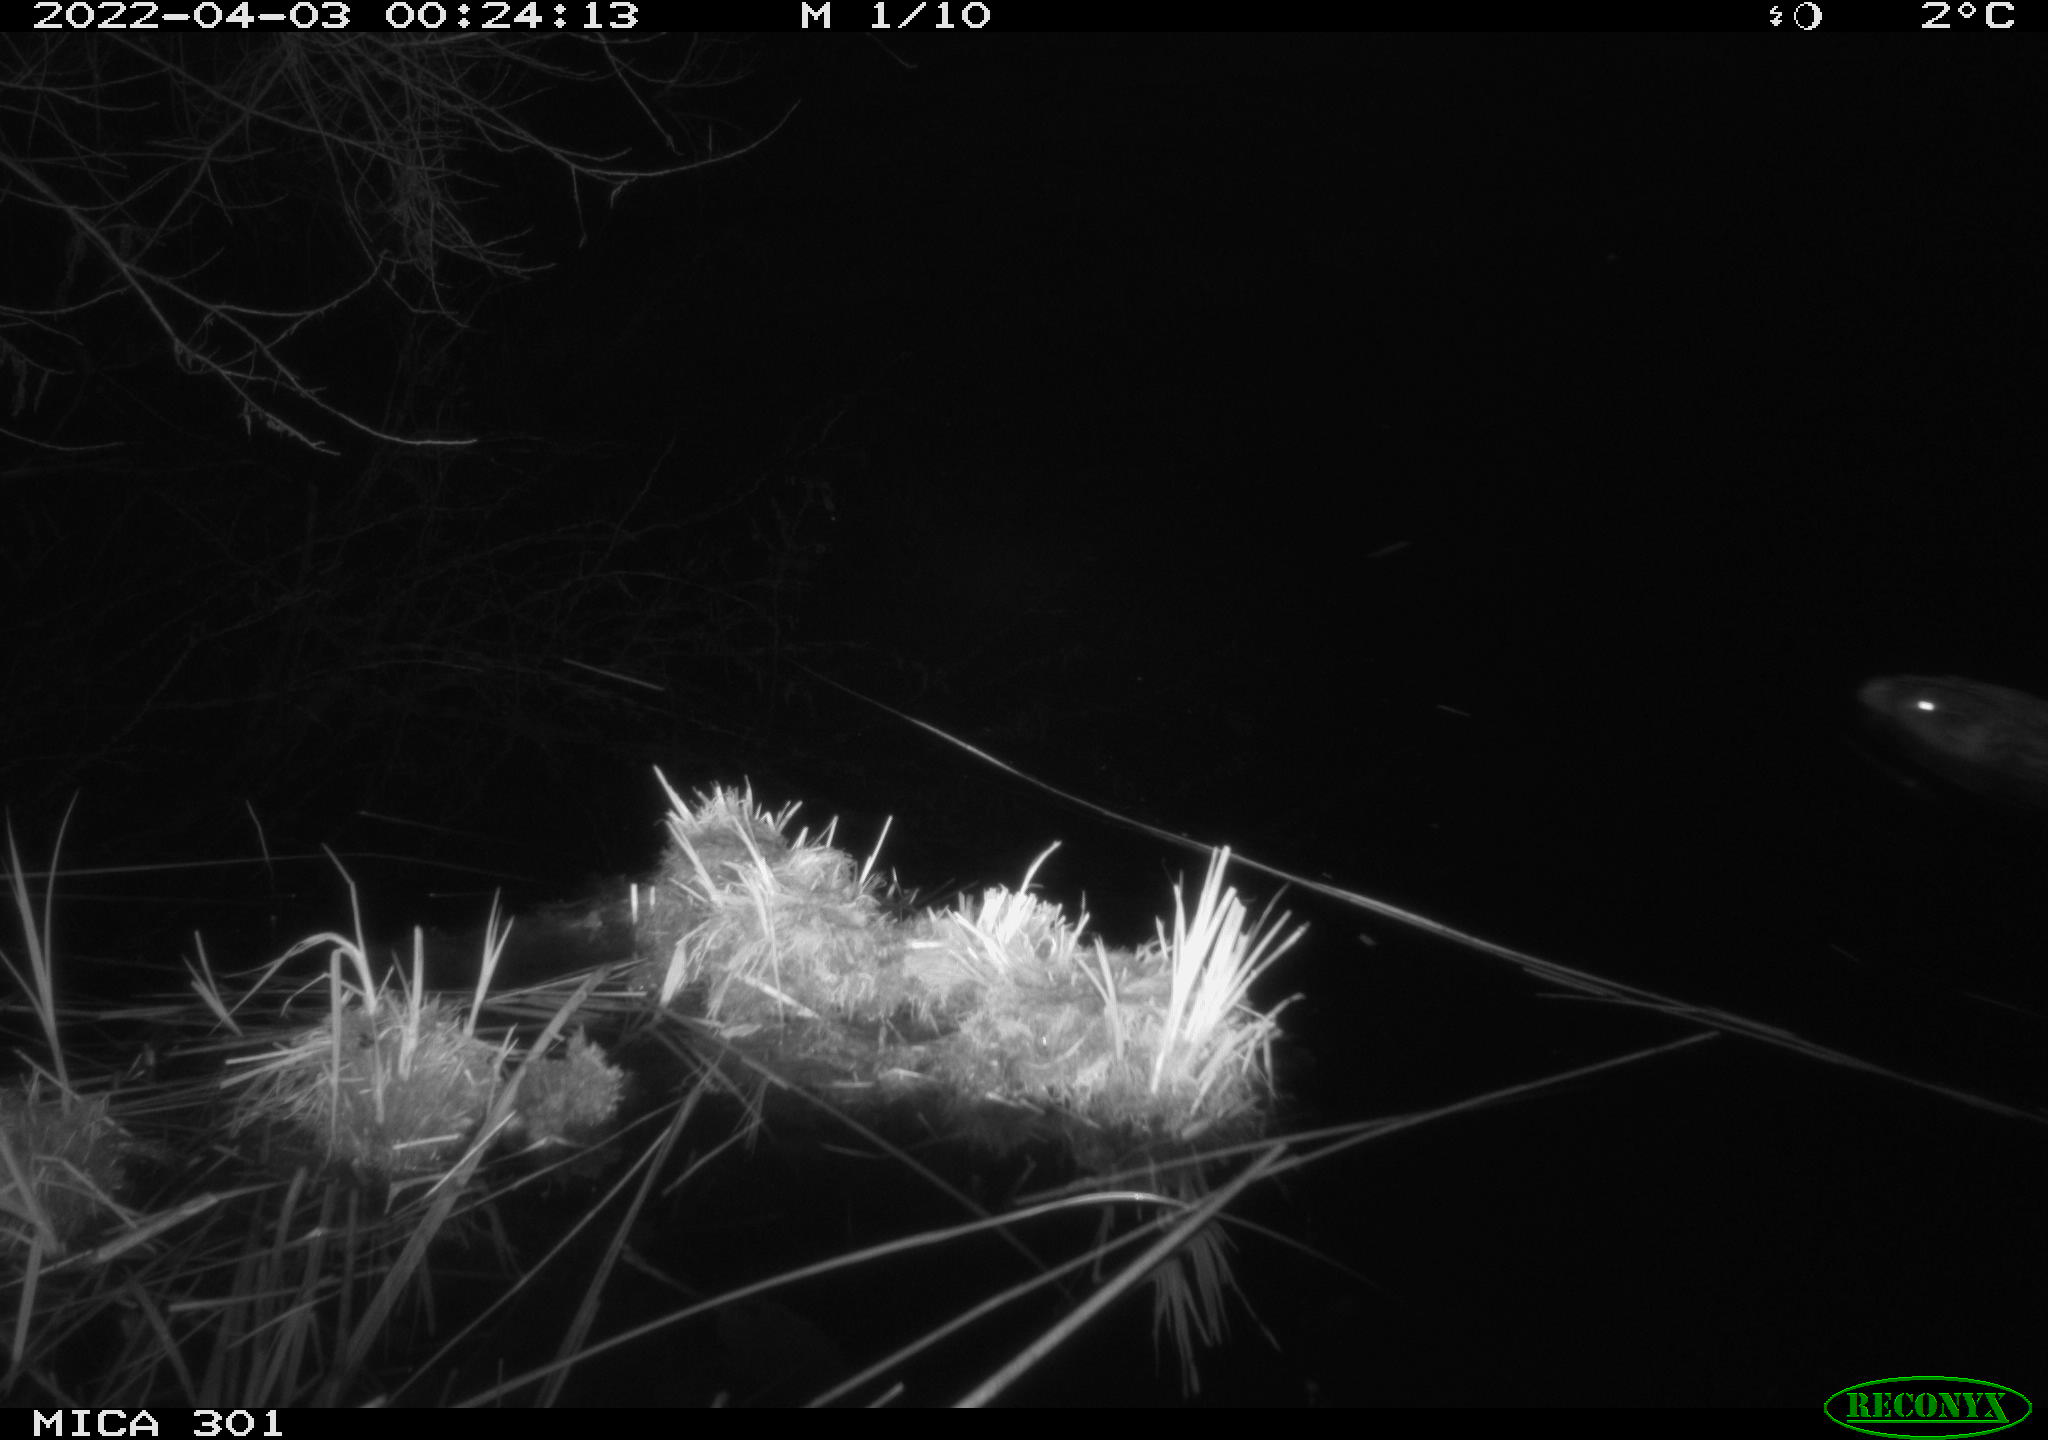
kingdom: Animalia
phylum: Chordata
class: Mammalia
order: Rodentia
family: Castoridae
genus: Castor
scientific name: Castor fiber
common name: Eurasian beaver
